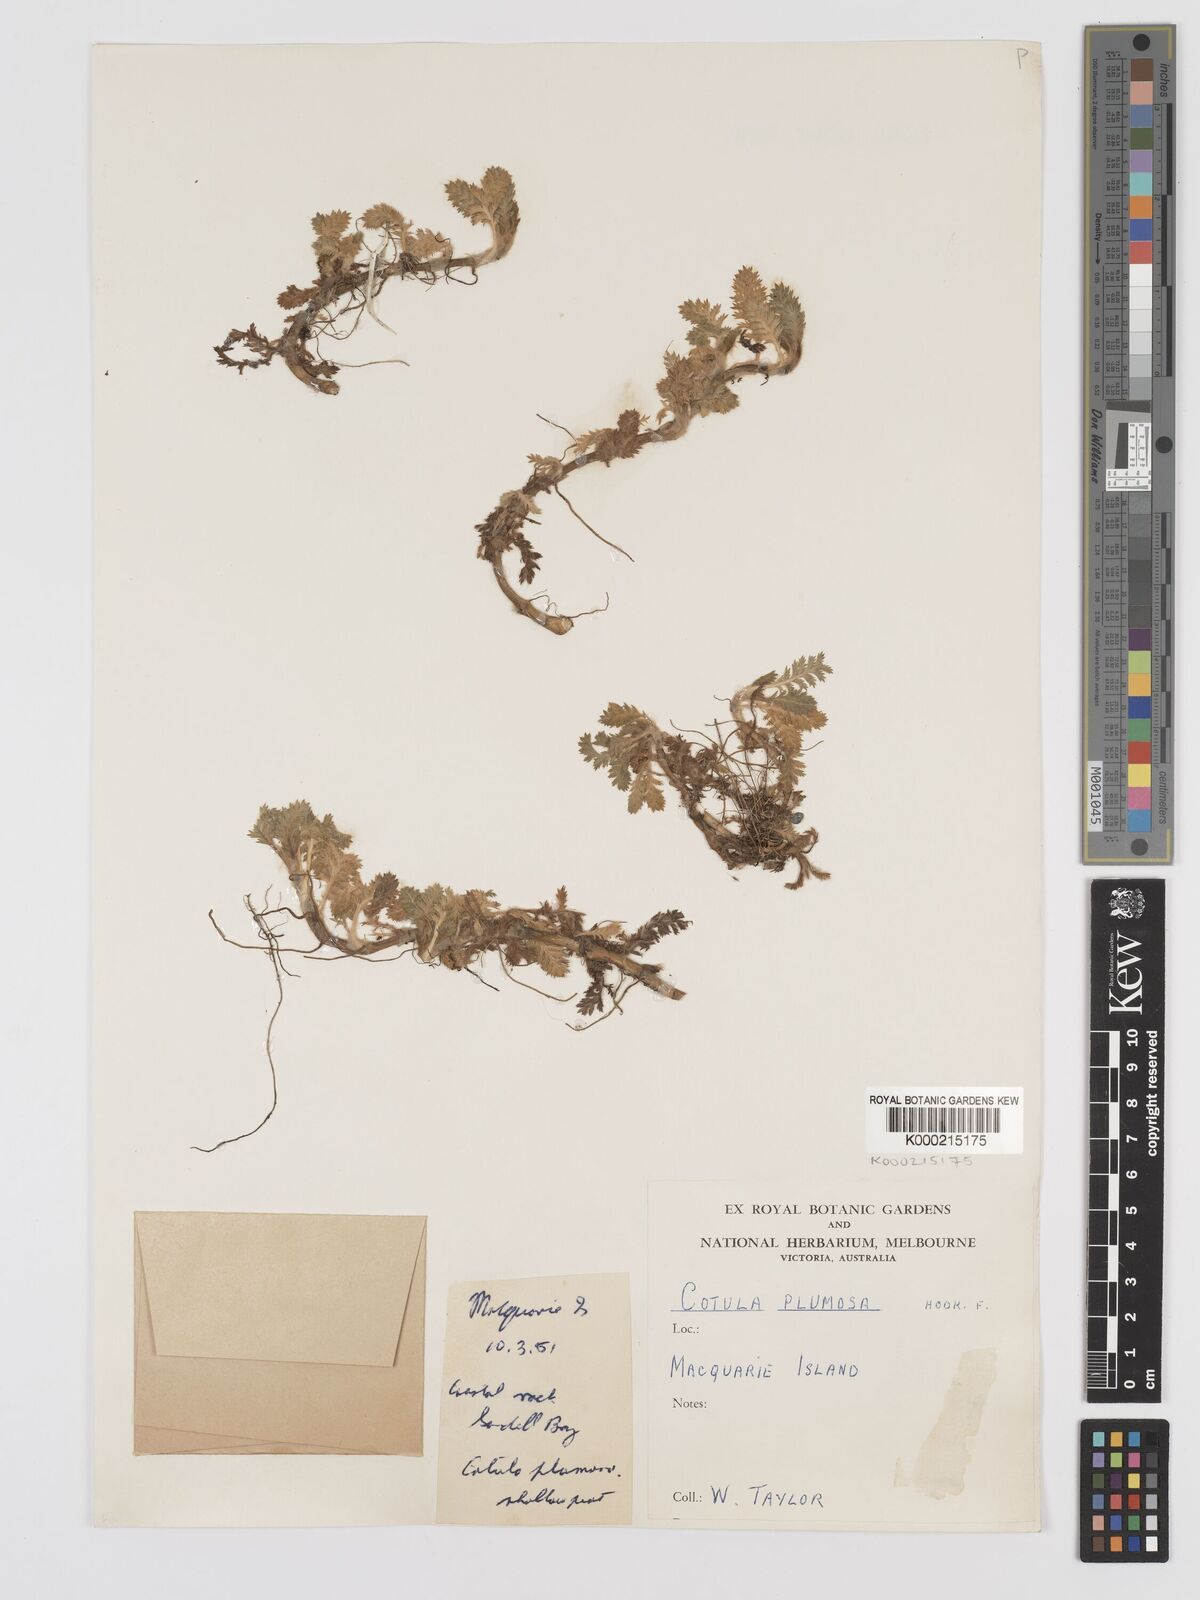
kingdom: Plantae
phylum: Tracheophyta
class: Magnoliopsida
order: Asterales
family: Asteraceae
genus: Leptinella
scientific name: Leptinella
